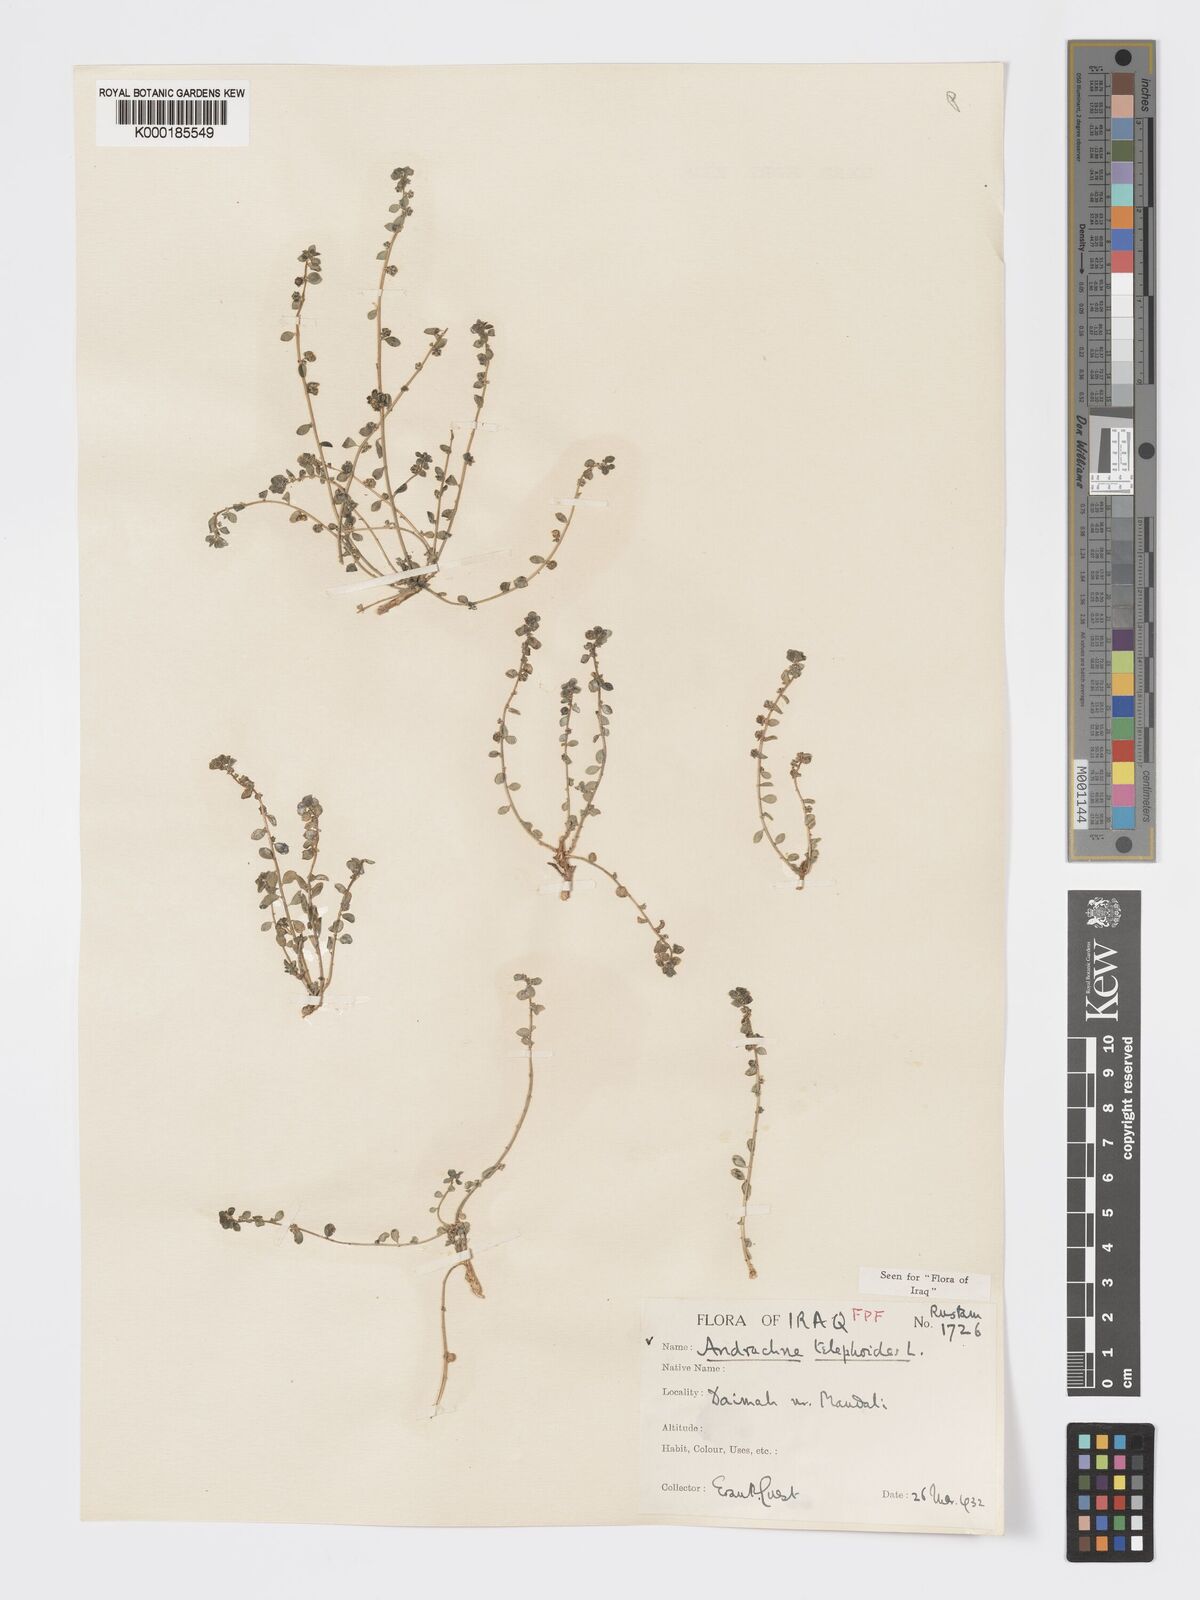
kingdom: Plantae
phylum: Tracheophyta
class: Magnoliopsida
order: Malpighiales
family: Phyllanthaceae
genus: Andrachne
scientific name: Andrachne telephioides
